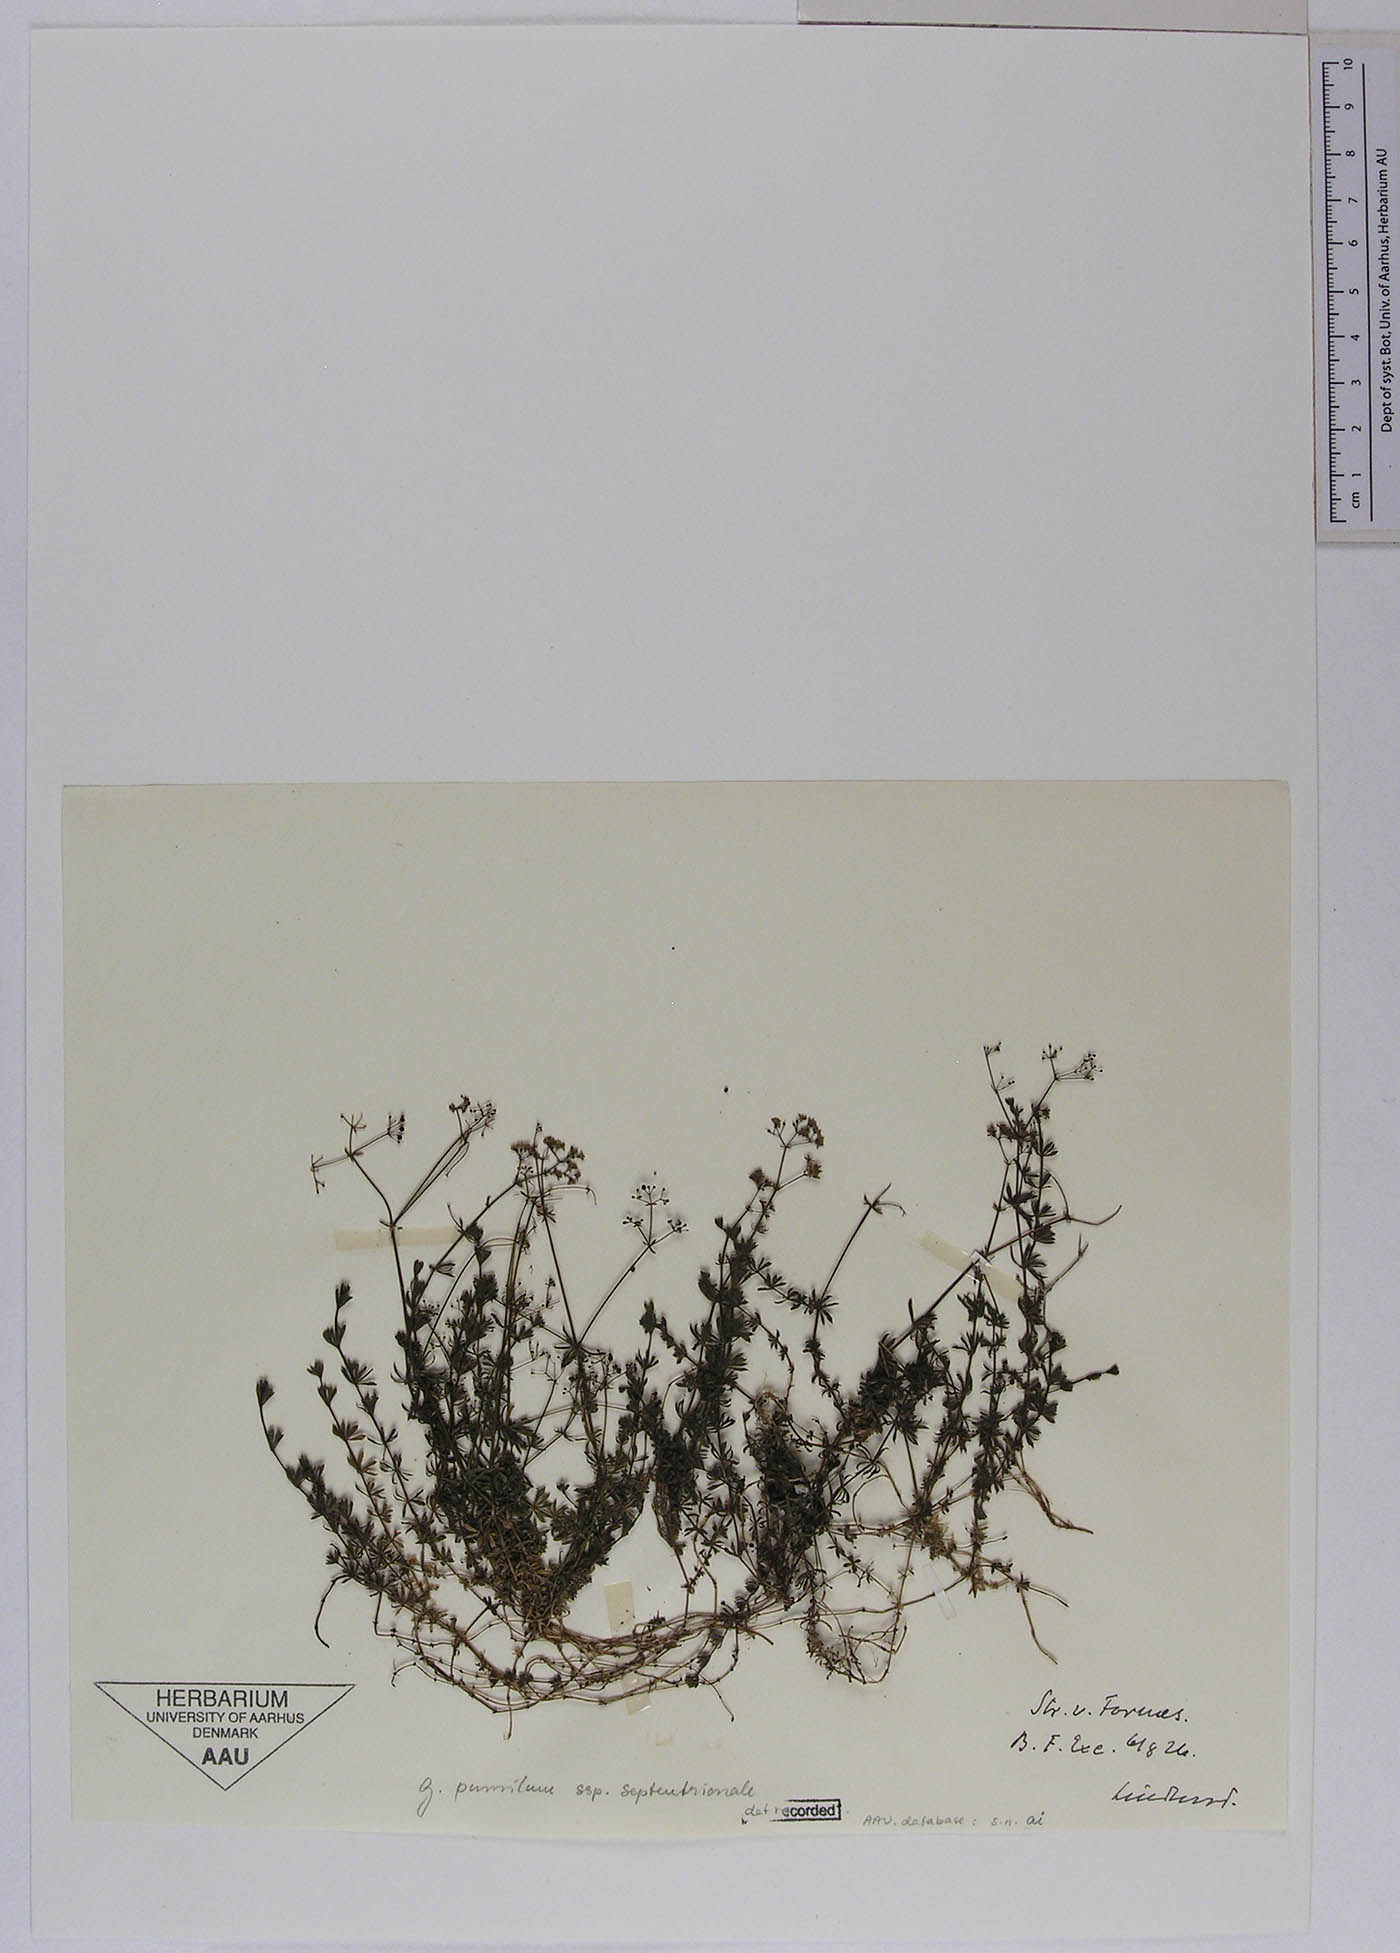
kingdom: Plantae
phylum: Tracheophyta
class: Magnoliopsida
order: Gentianales
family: Rubiaceae
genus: Galium
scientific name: Galium pusillum
